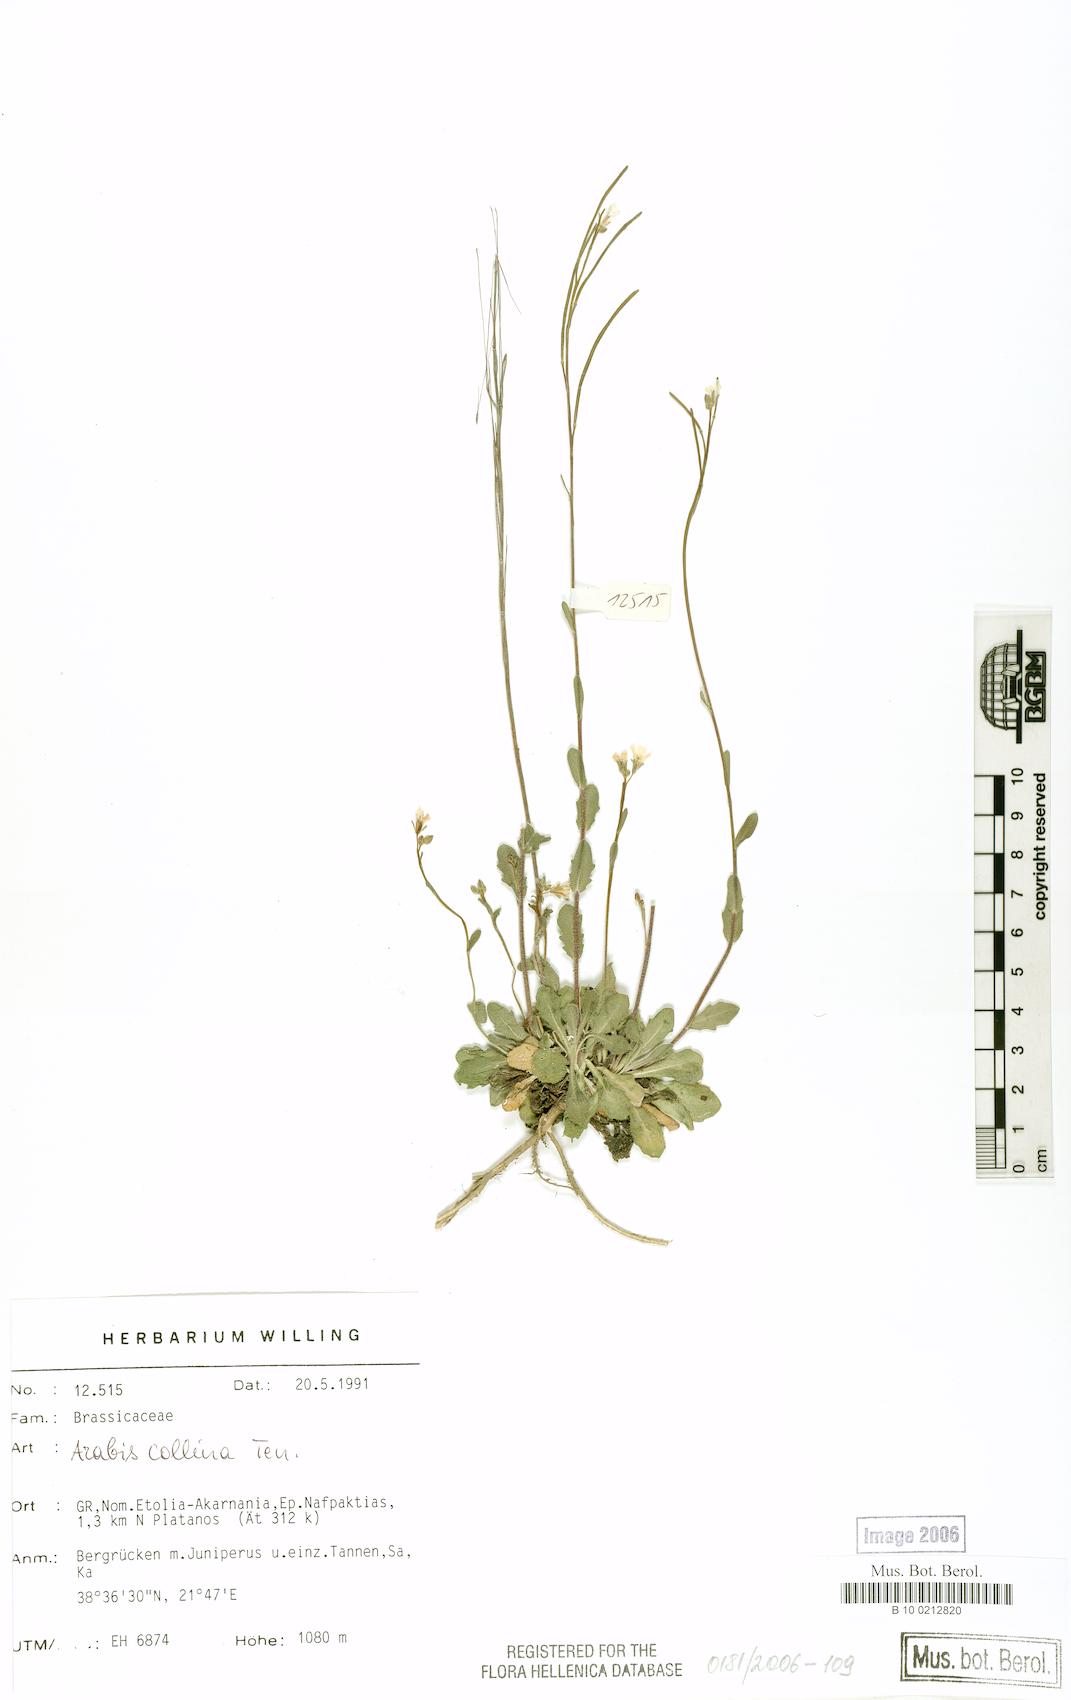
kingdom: Plantae
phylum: Tracheophyta
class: Magnoliopsida
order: Brassicales
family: Brassicaceae
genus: Arabis
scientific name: Arabis collina
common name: Rosy cress
